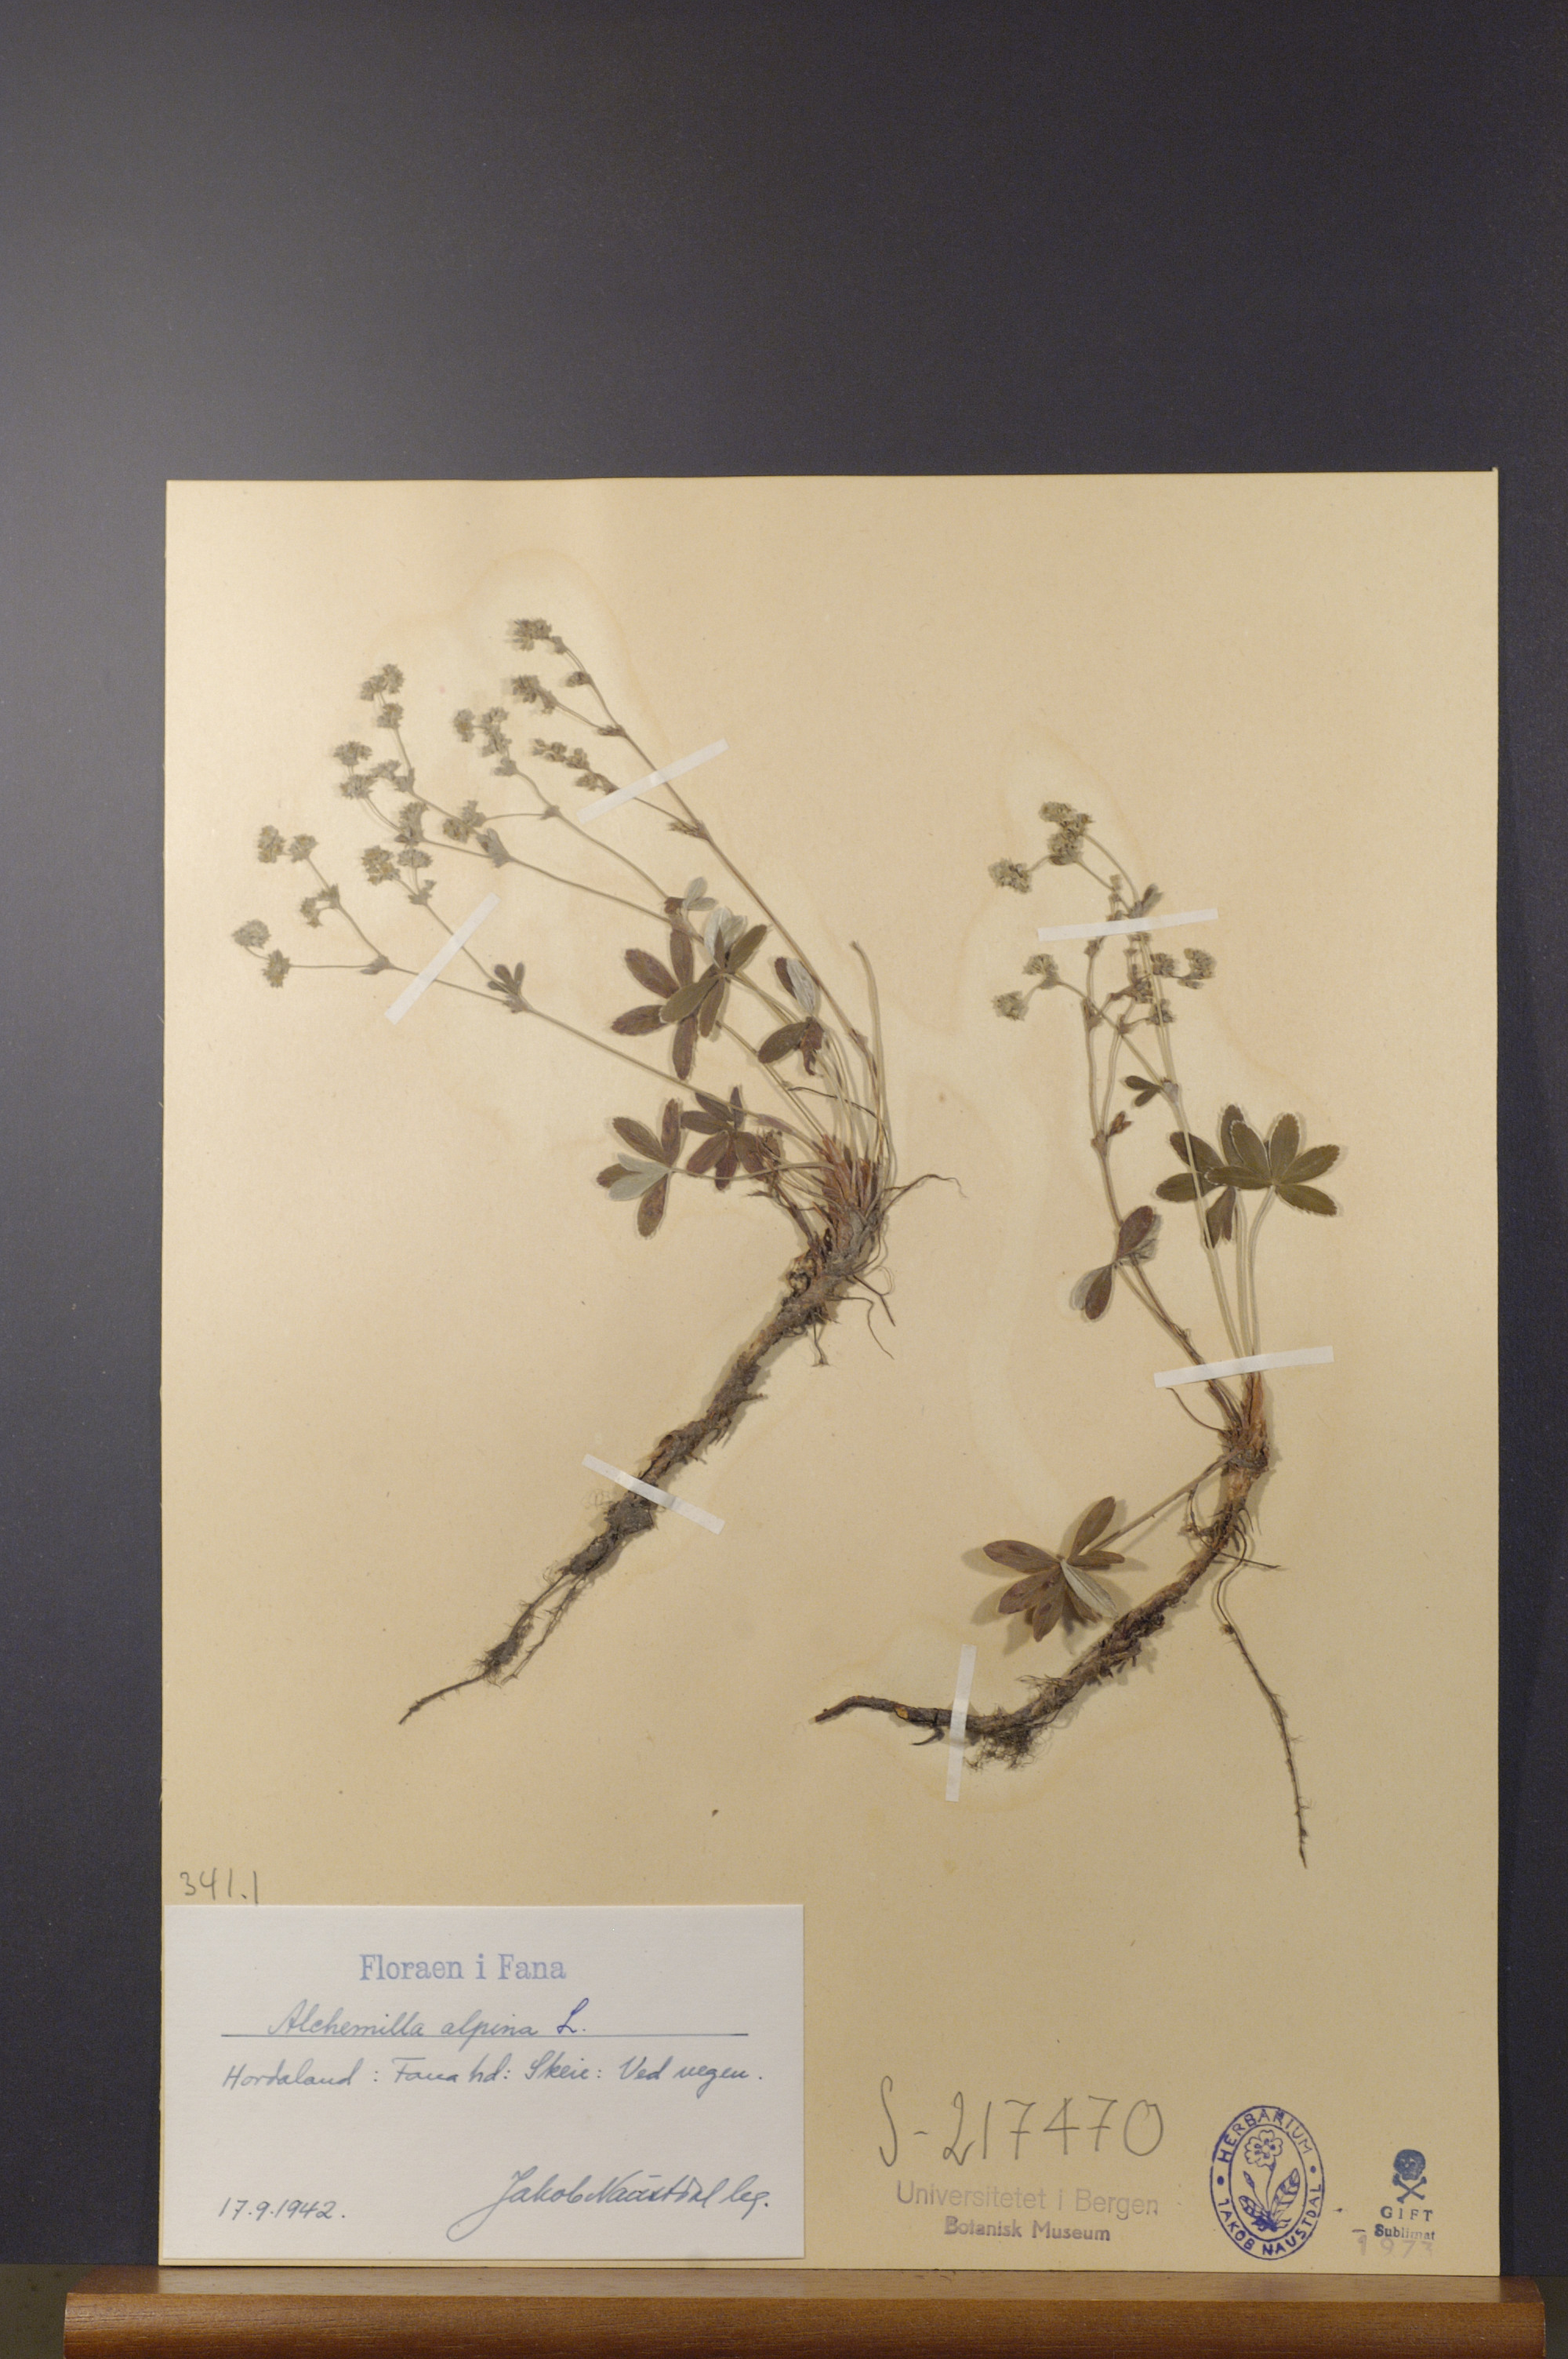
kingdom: Plantae
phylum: Tracheophyta
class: Magnoliopsida
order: Rosales
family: Rosaceae
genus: Alchemilla
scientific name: Alchemilla alpina
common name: Alpine lady's-mantle
